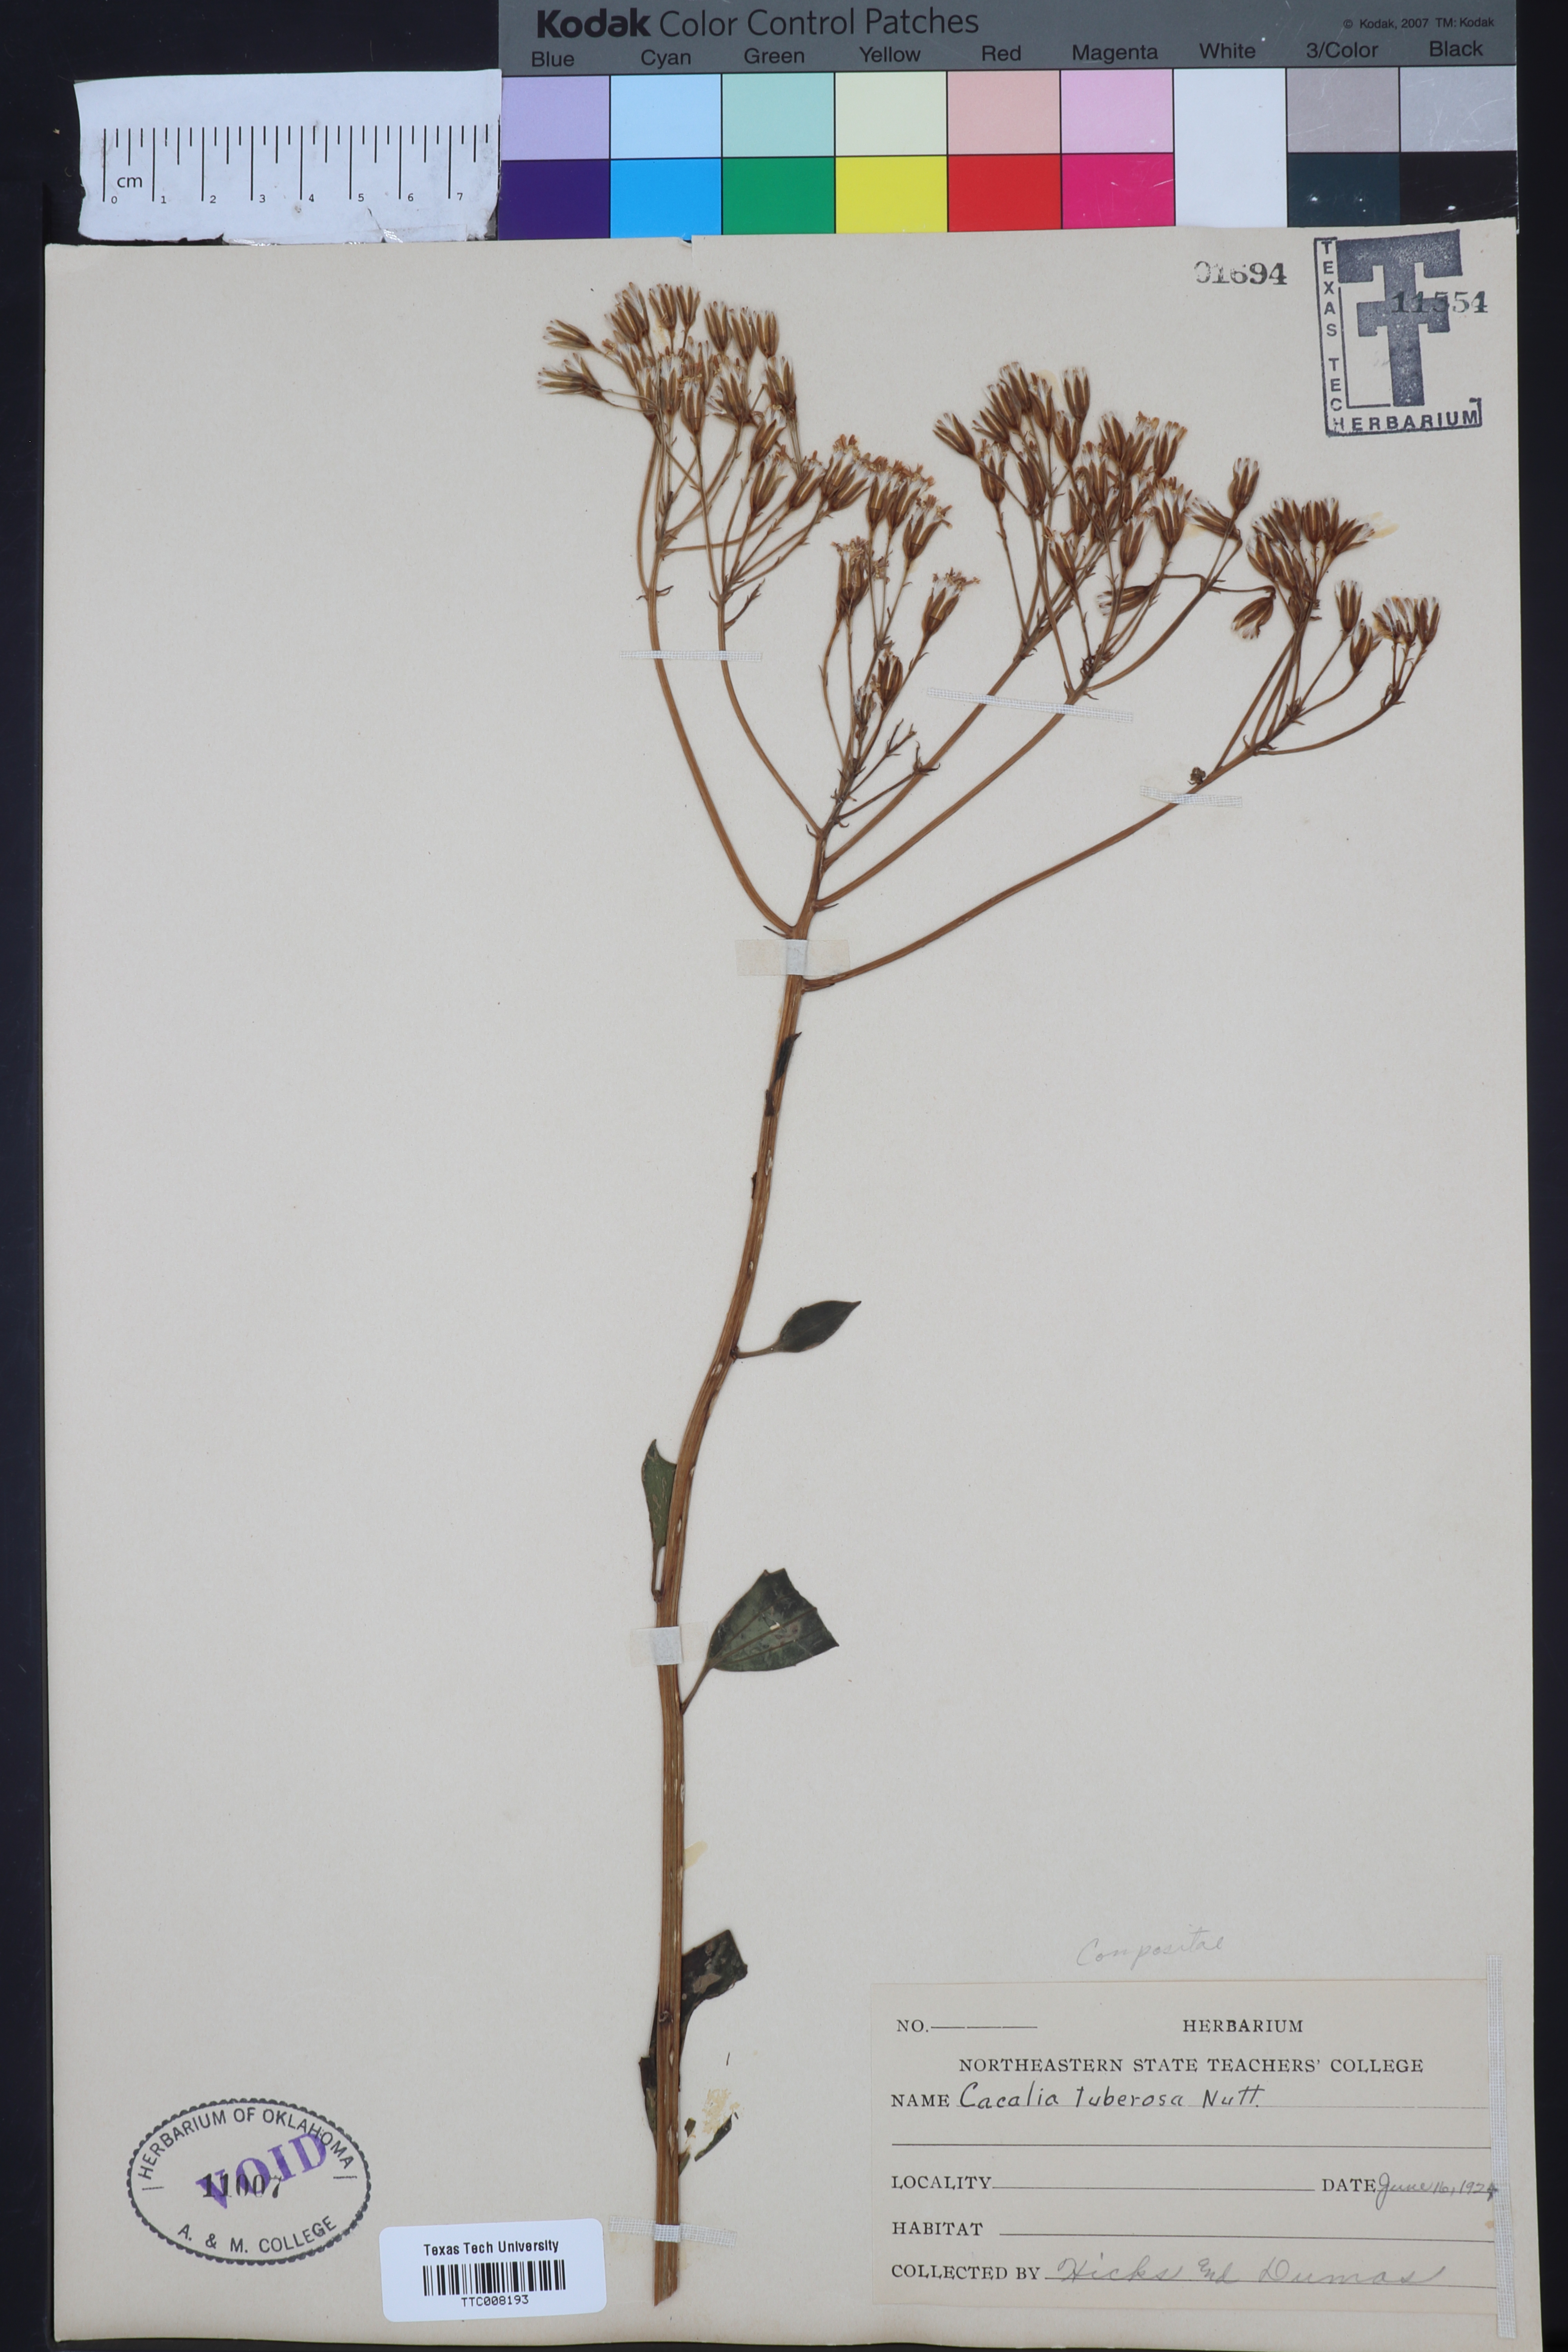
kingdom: Plantae
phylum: Tracheophyta
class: Magnoliopsida
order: Asterales
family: Asteraceae
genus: Adenostyles
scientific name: Adenostyles Cacalia tuberosa
